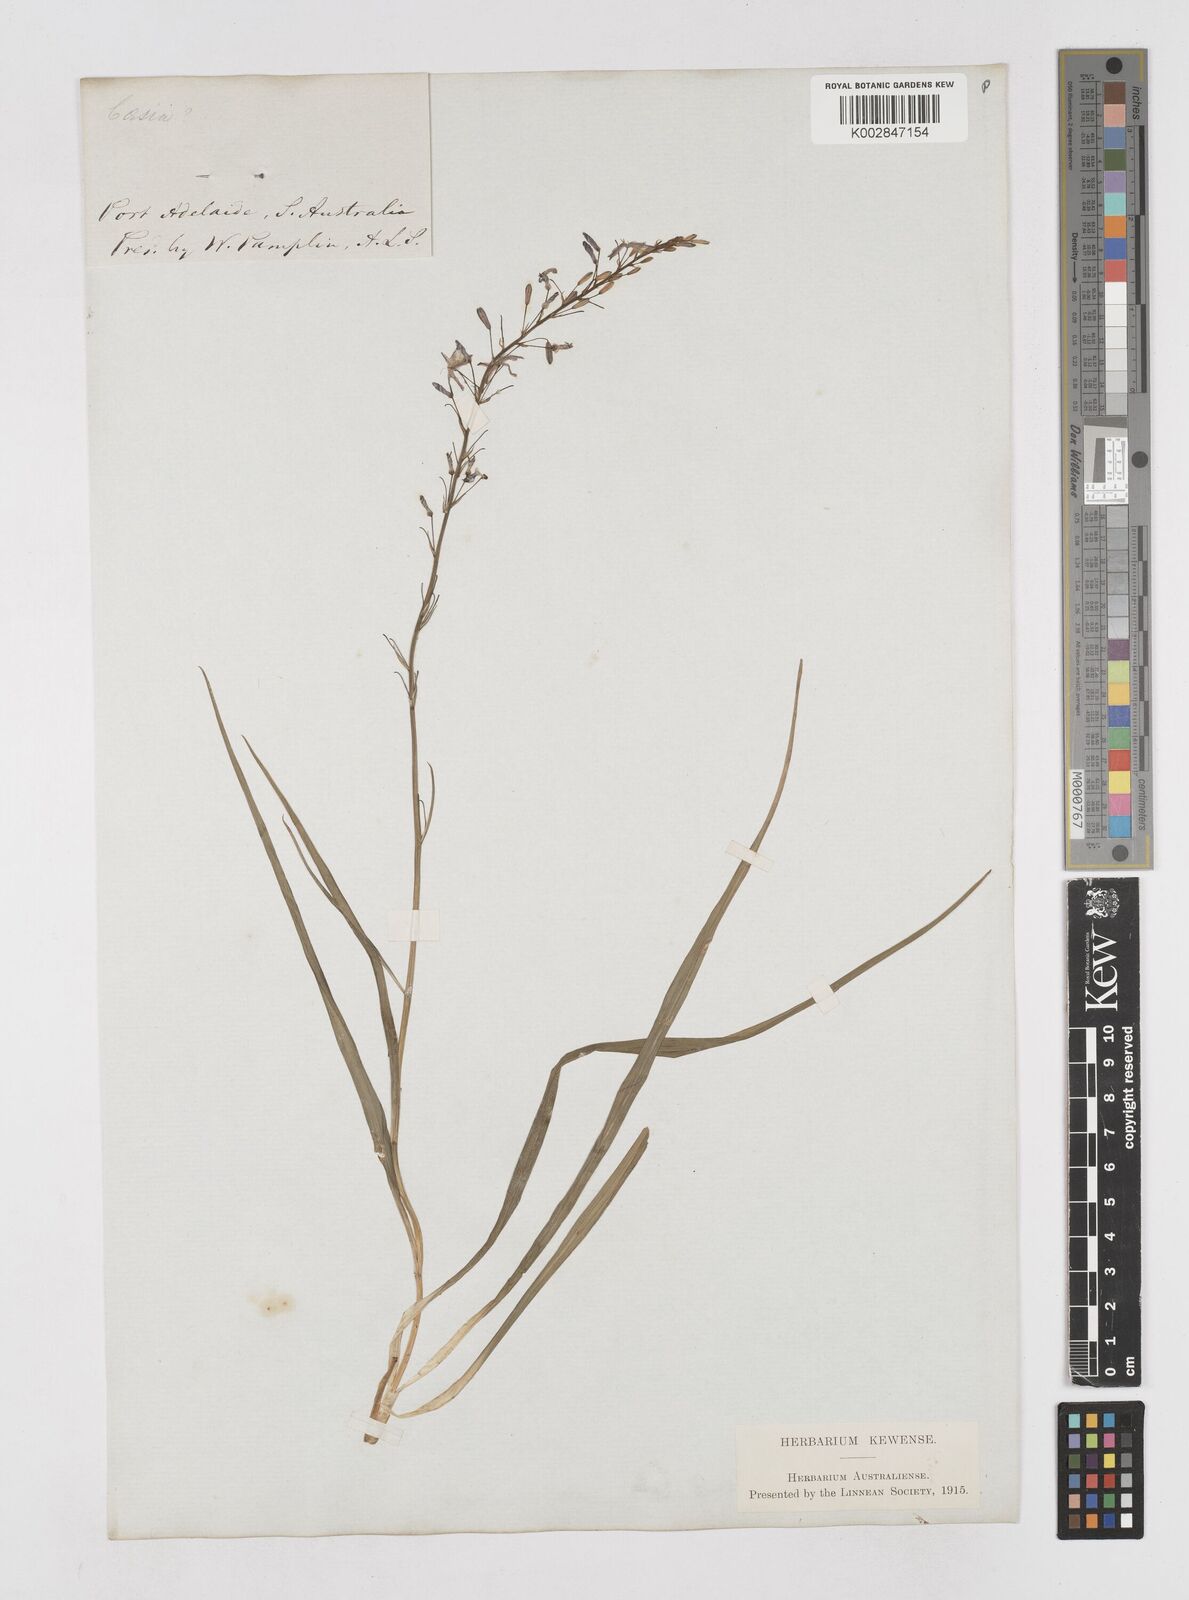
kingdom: Plantae
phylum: Tracheophyta
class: Liliopsida
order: Asparagales
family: Asphodelaceae
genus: Caesia
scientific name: Caesia
